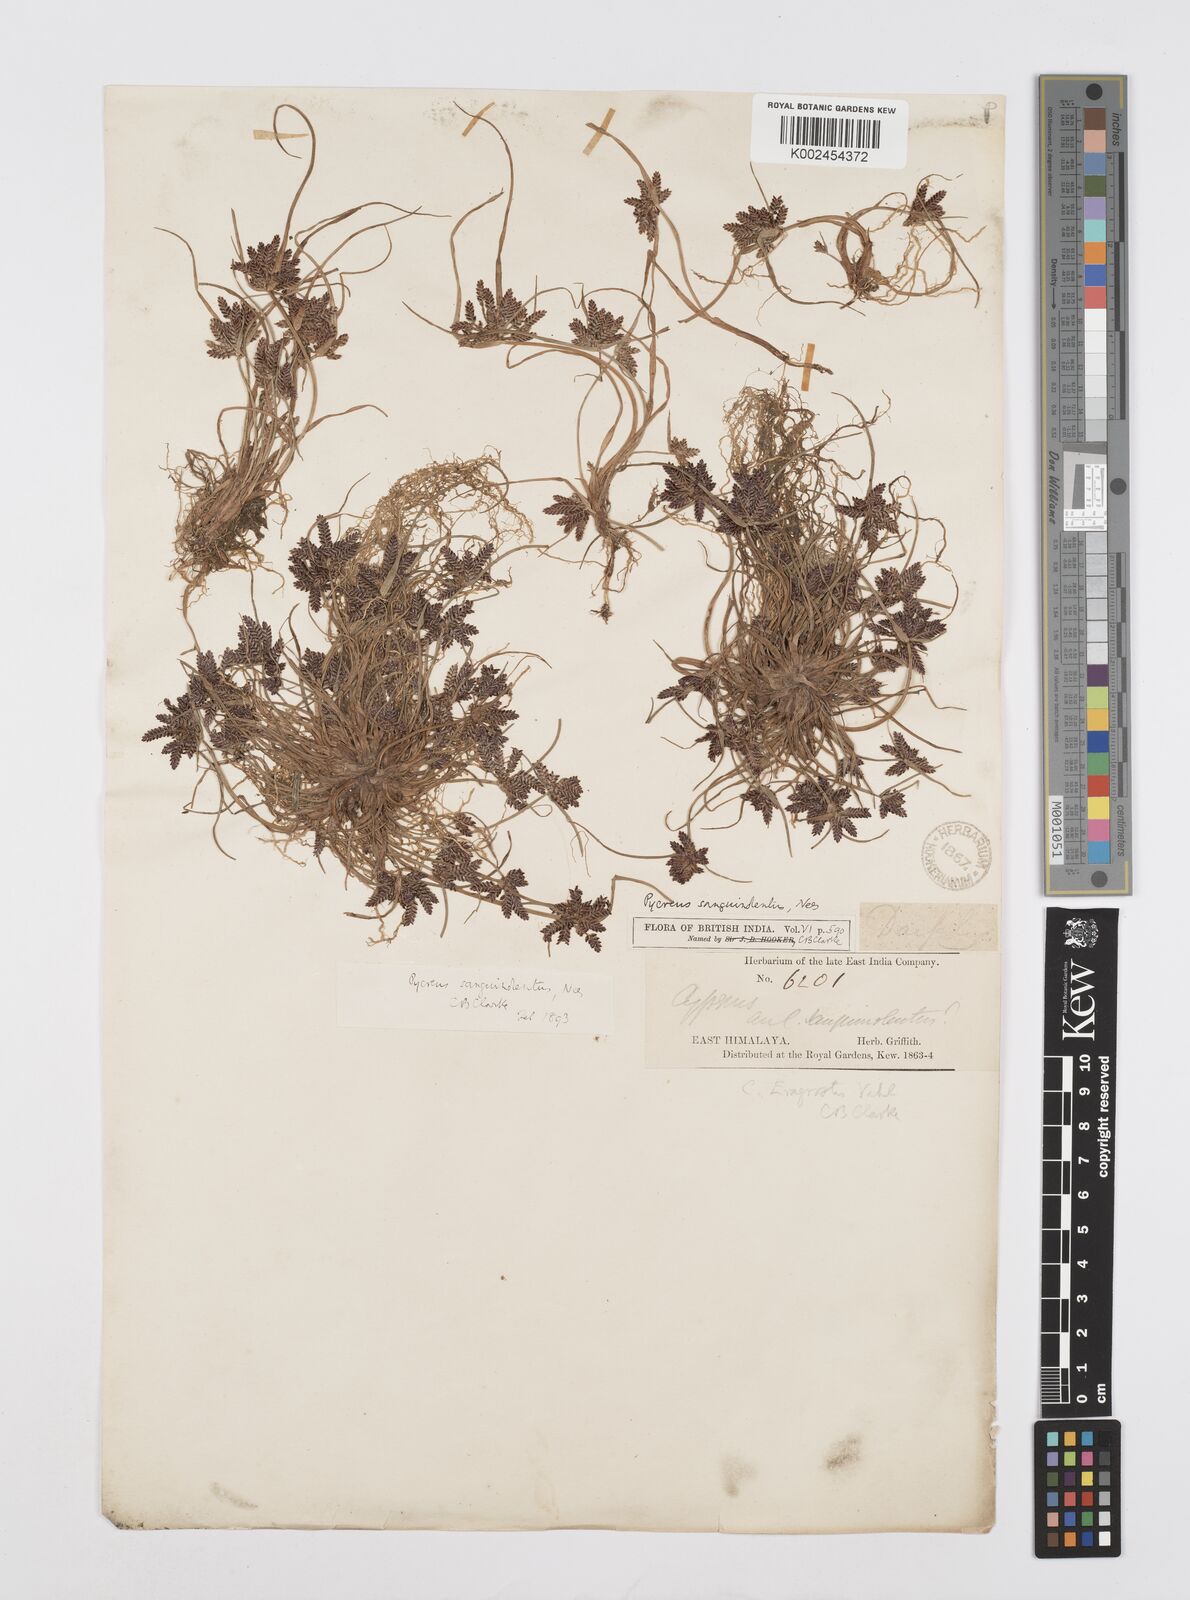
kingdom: Plantae
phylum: Tracheophyta
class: Liliopsida
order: Poales
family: Cyperaceae
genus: Cyperus
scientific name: Cyperus sanguinolentus
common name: Purpleglume flatsedge
